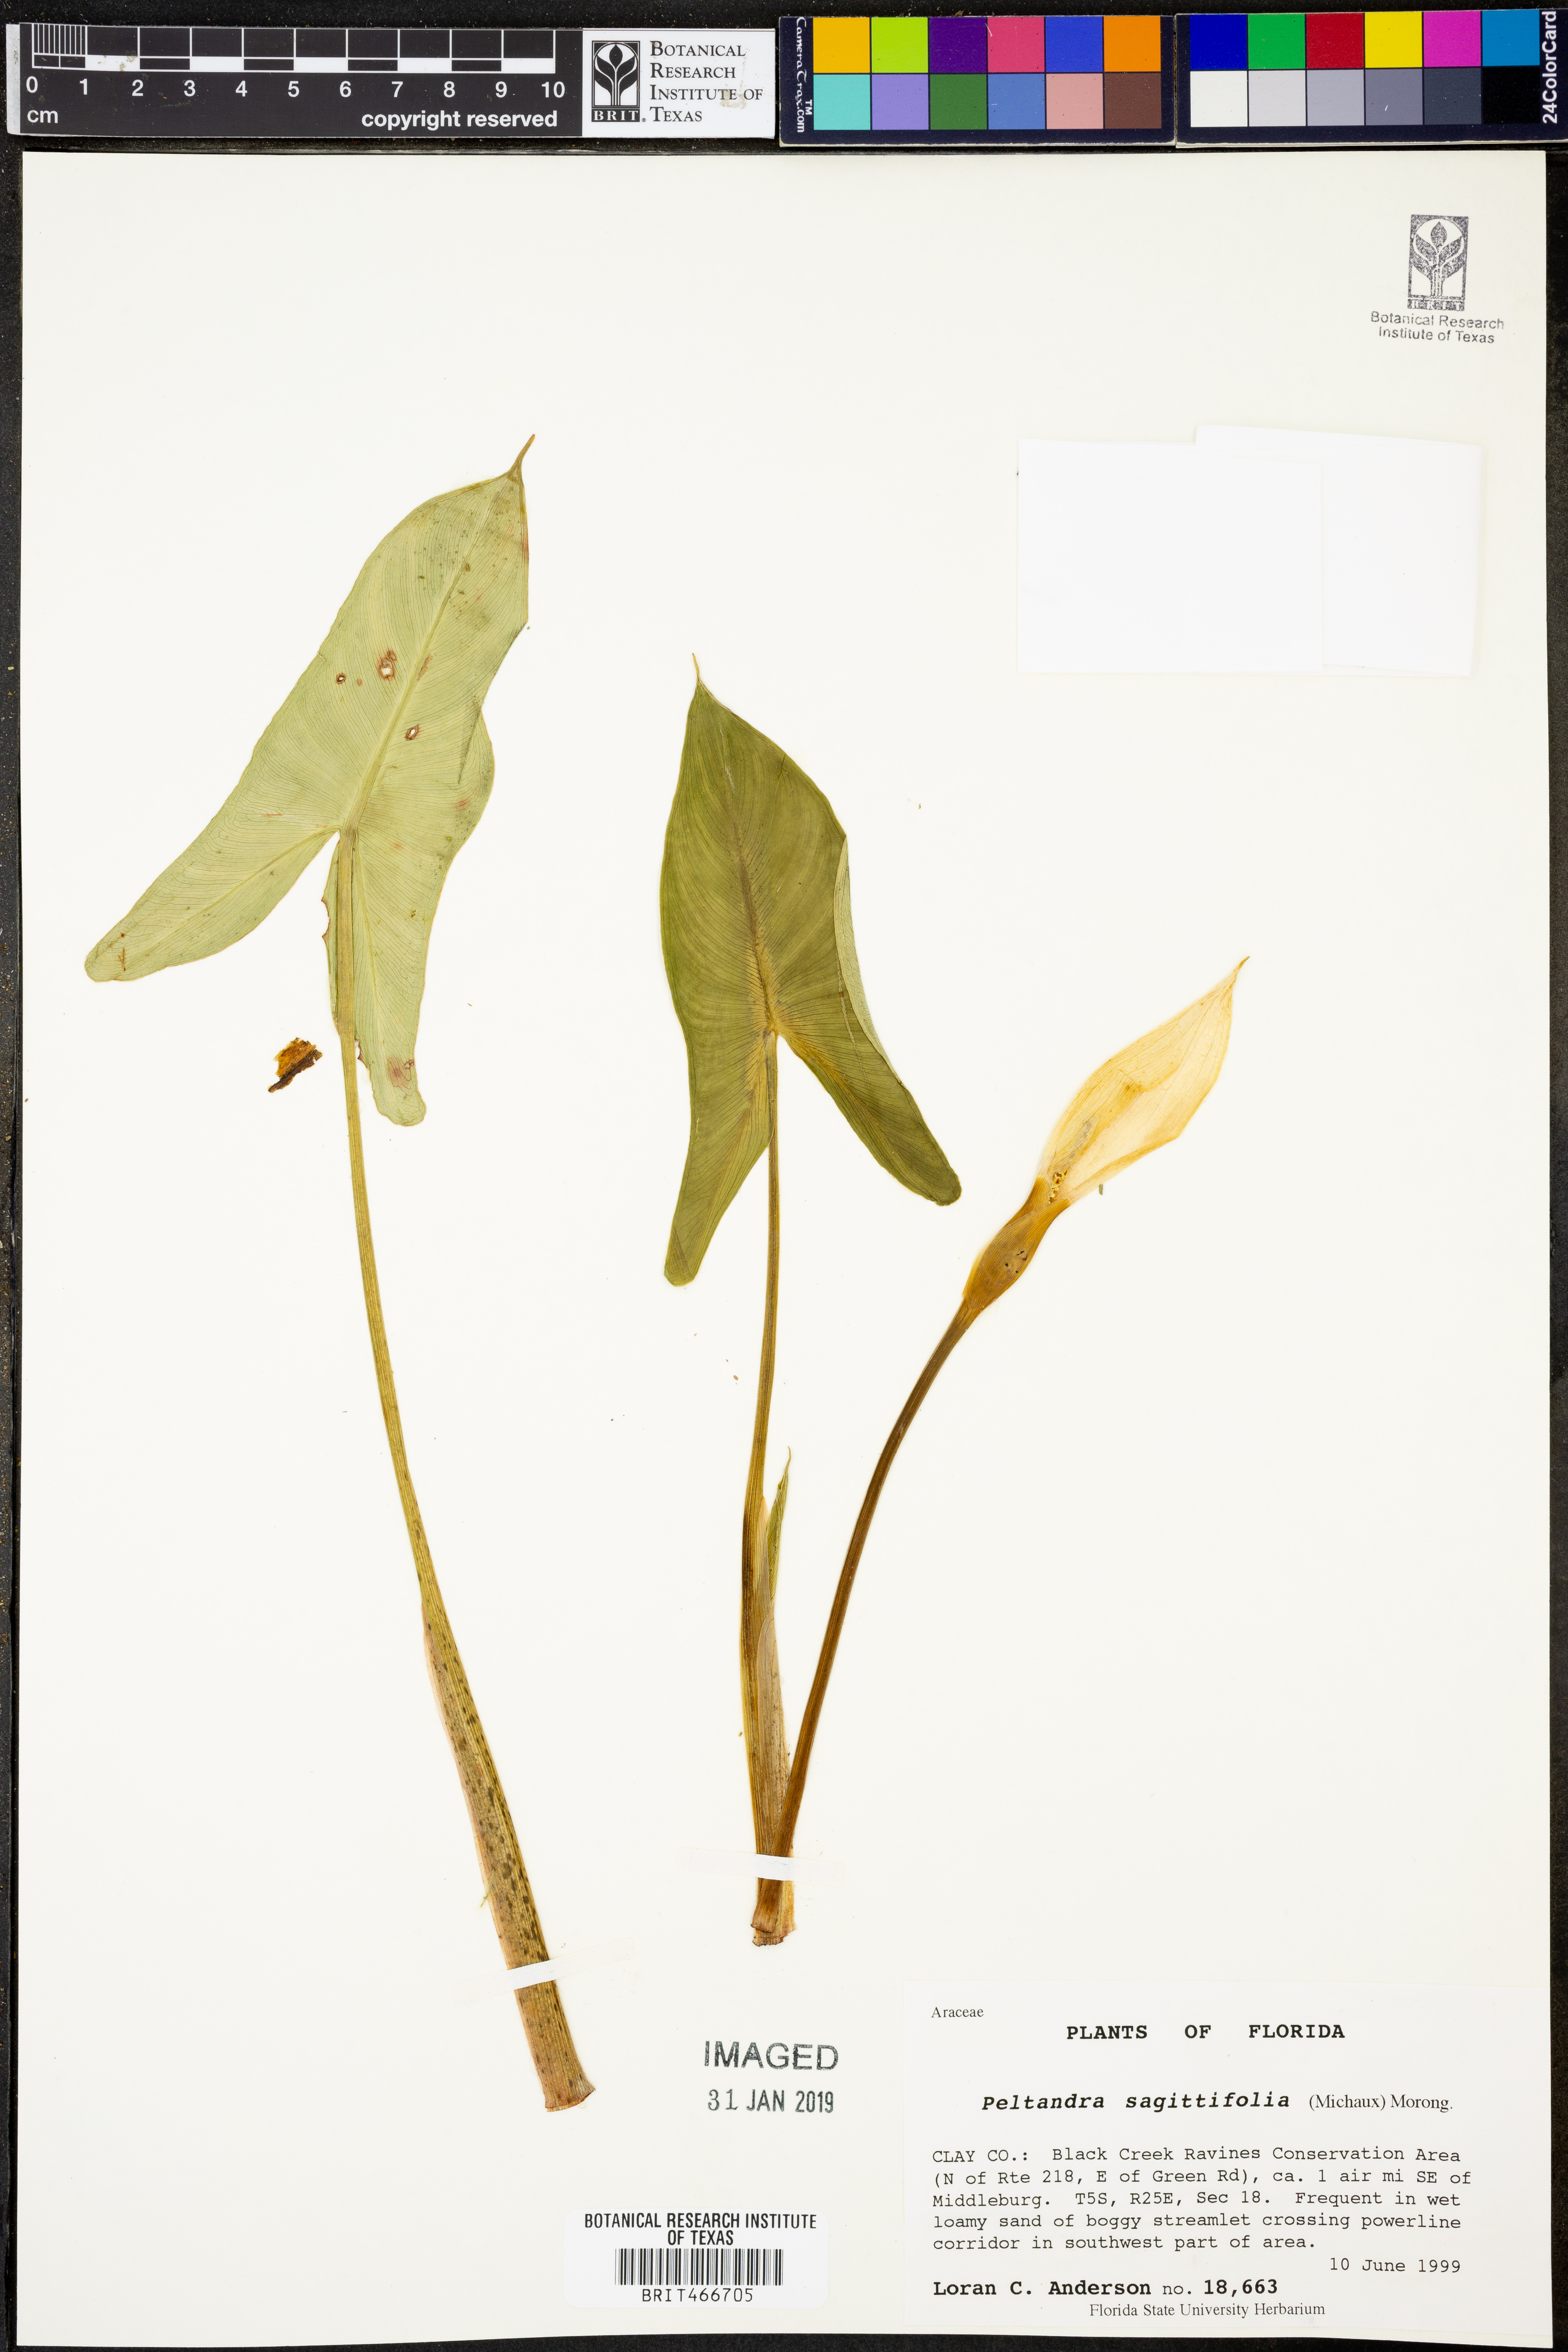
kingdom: Plantae
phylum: Tracheophyta
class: Liliopsida
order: Alismatales
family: Araceae
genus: Peltandra
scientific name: Peltandra sagittifolia
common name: White arrow arum
